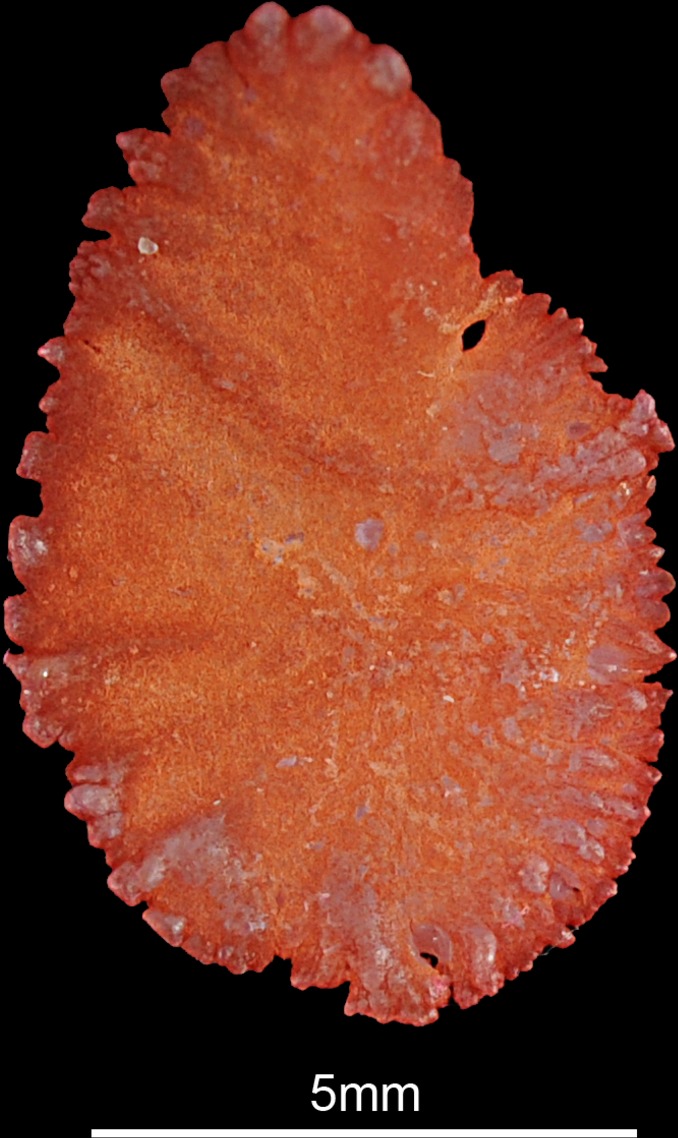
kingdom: Animalia
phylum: Chordata
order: Perciformes
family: Cichlidae
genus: Oreochromis
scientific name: Oreochromis niloticus
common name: Nile tilapia
